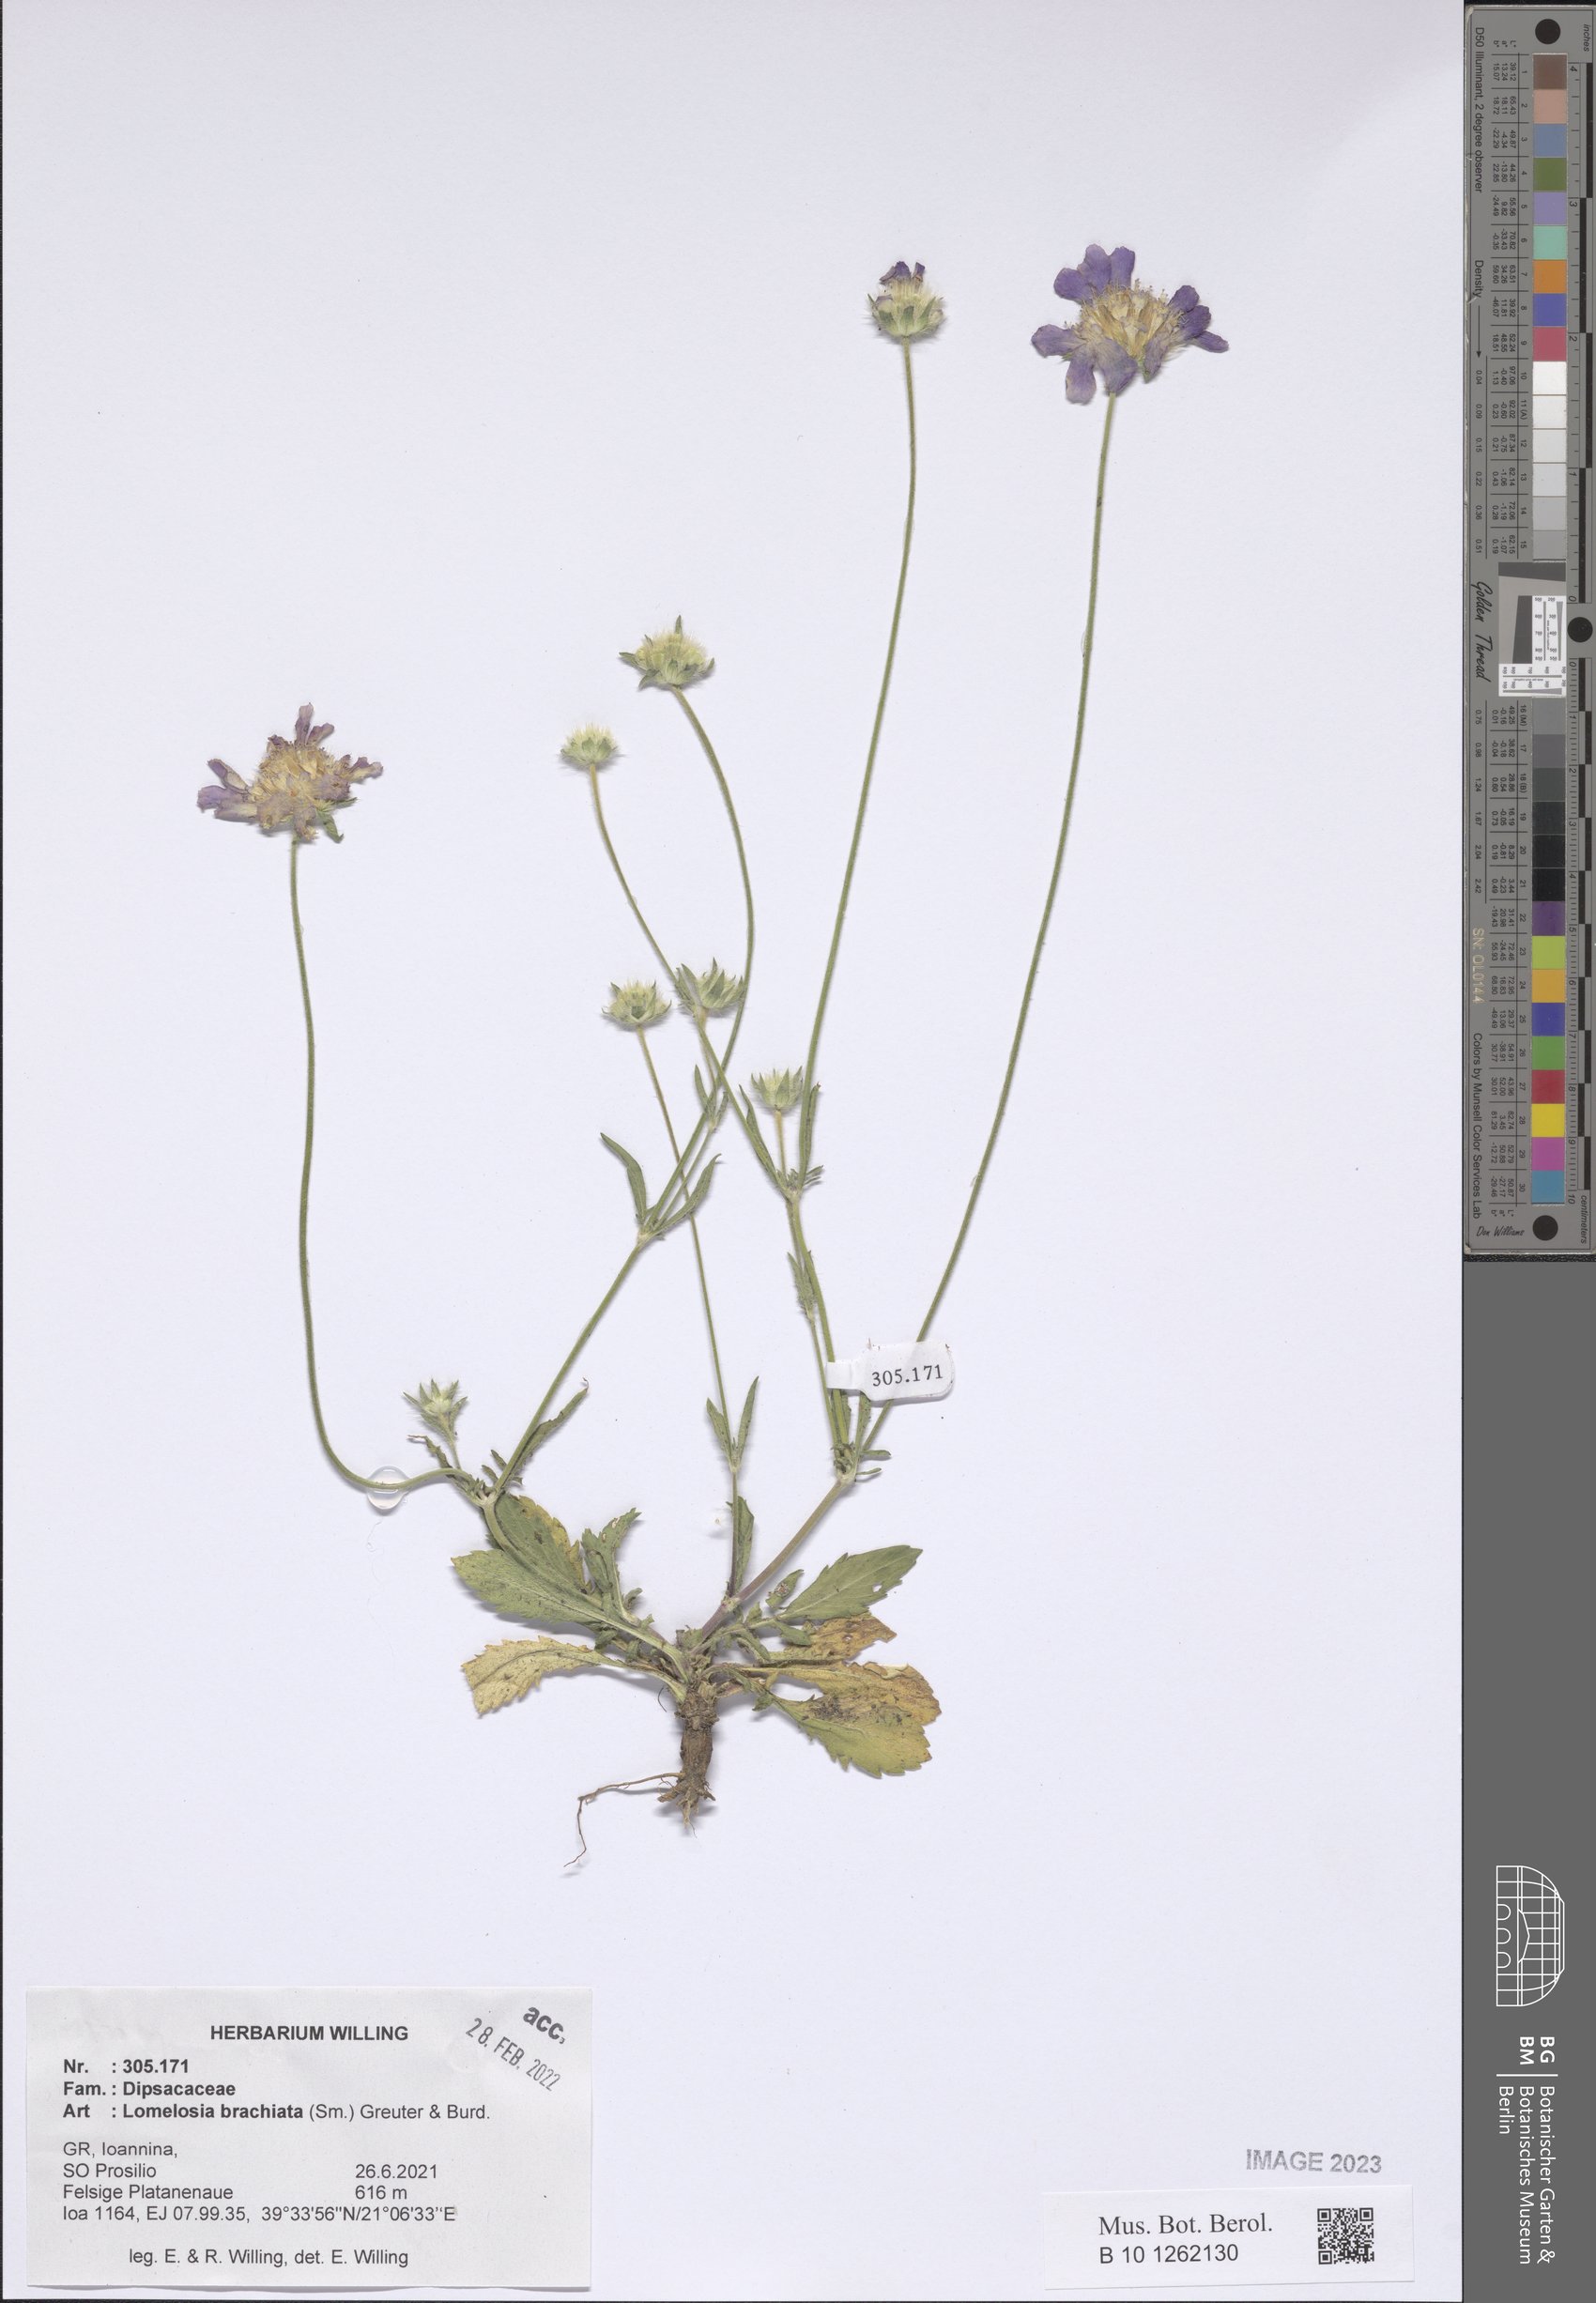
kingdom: Plantae
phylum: Tracheophyta
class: Magnoliopsida
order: Dipsacales
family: Caprifoliaceae
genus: Lomelosia
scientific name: Lomelosia brachiata
